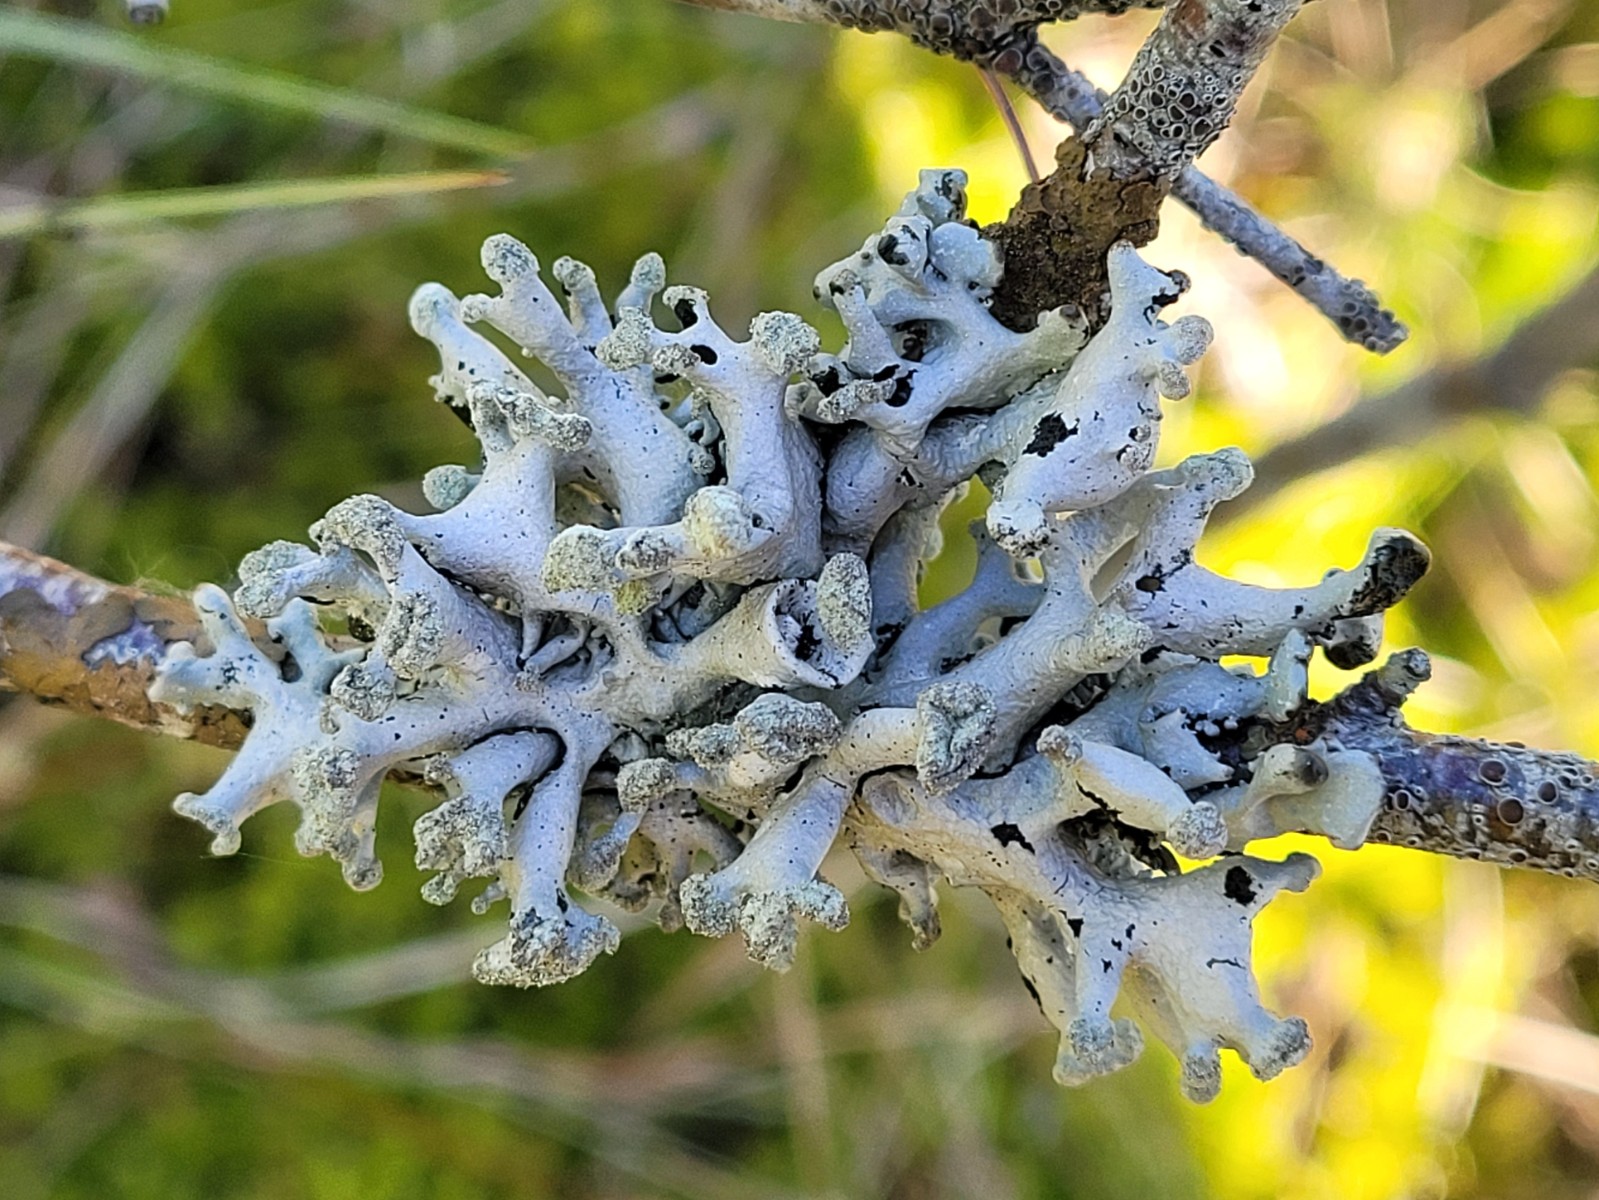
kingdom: Fungi
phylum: Ascomycota
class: Lecanoromycetes
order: Lecanorales
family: Parmeliaceae
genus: Hypogymnia
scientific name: Hypogymnia tubulosa
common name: finger-kvistlav
